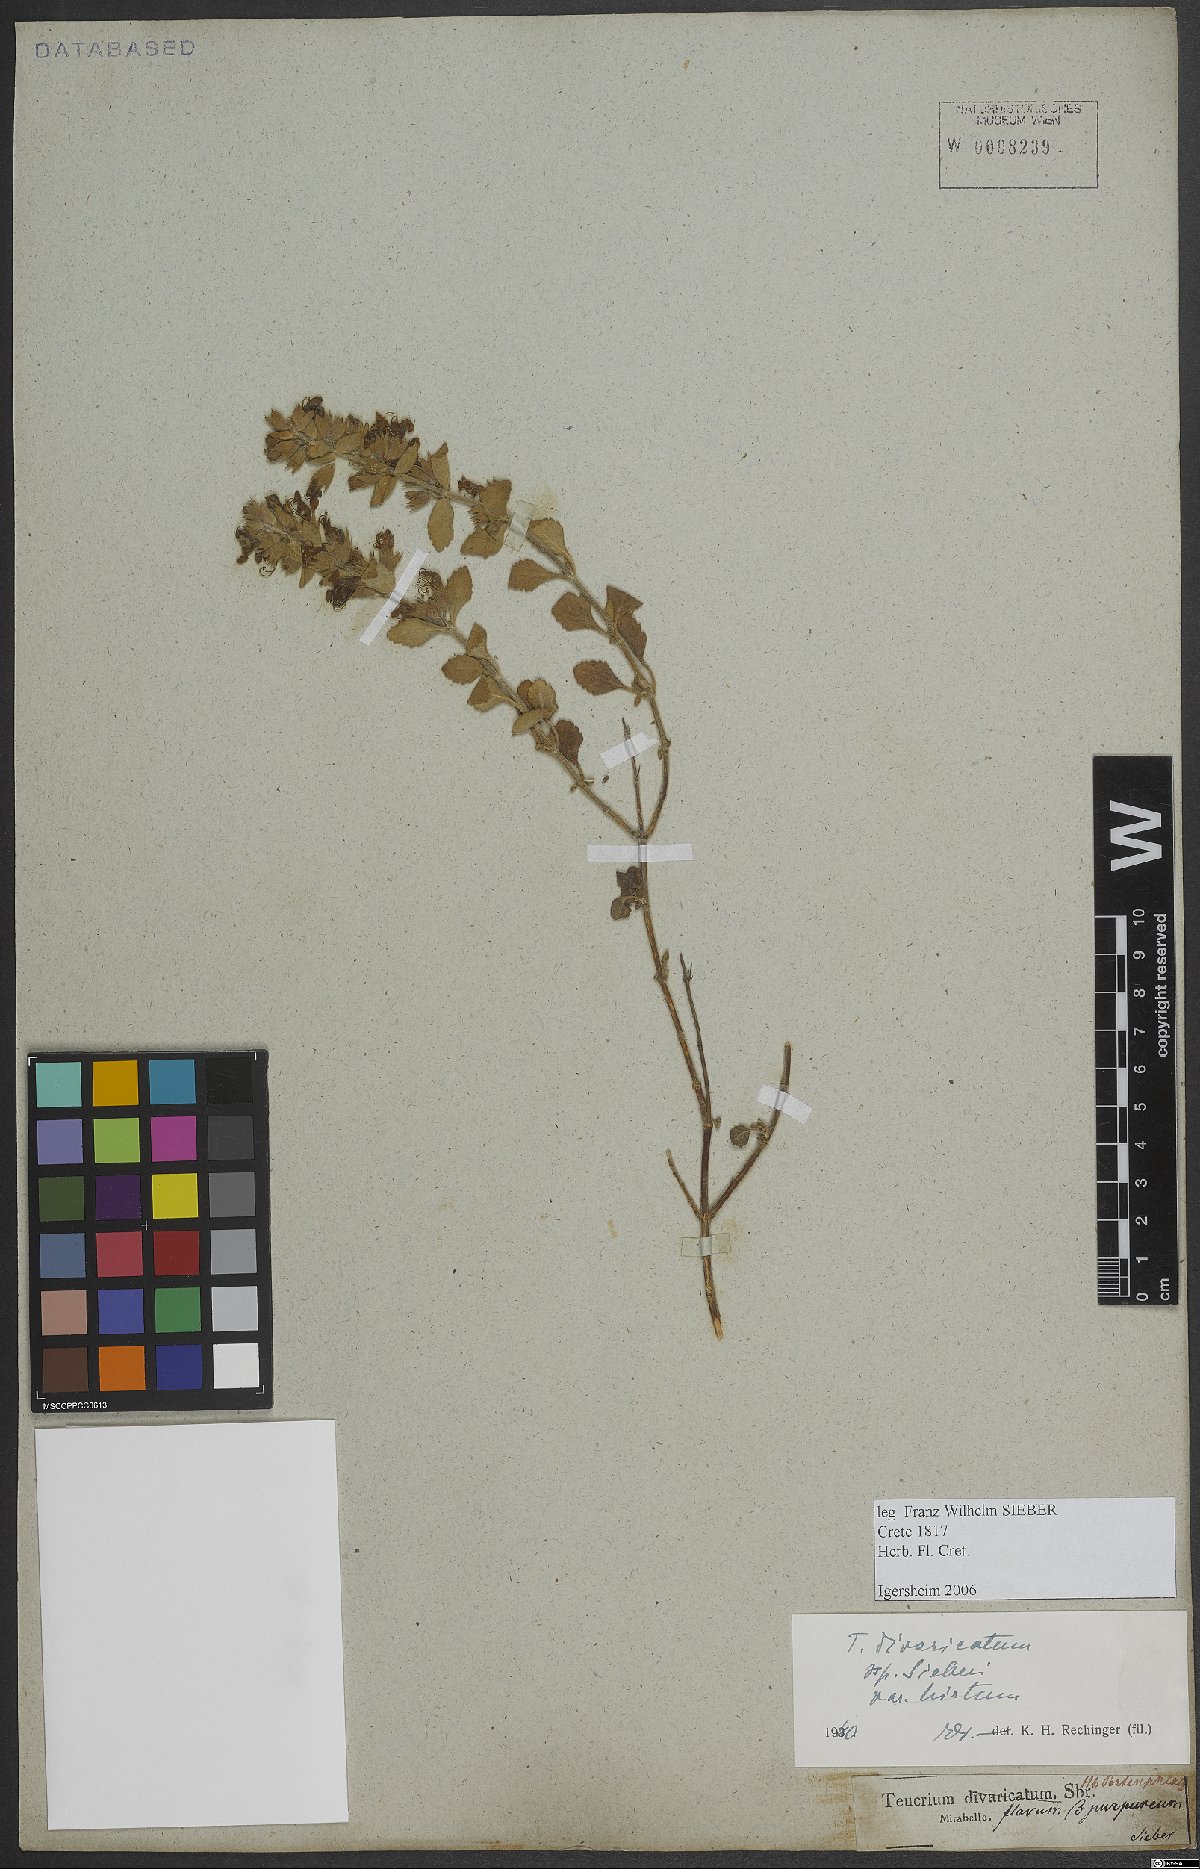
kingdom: Plantae
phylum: Tracheophyta
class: Magnoliopsida
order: Lamiales
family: Lamiaceae
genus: Teucrium
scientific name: Teucrium divaricatum
